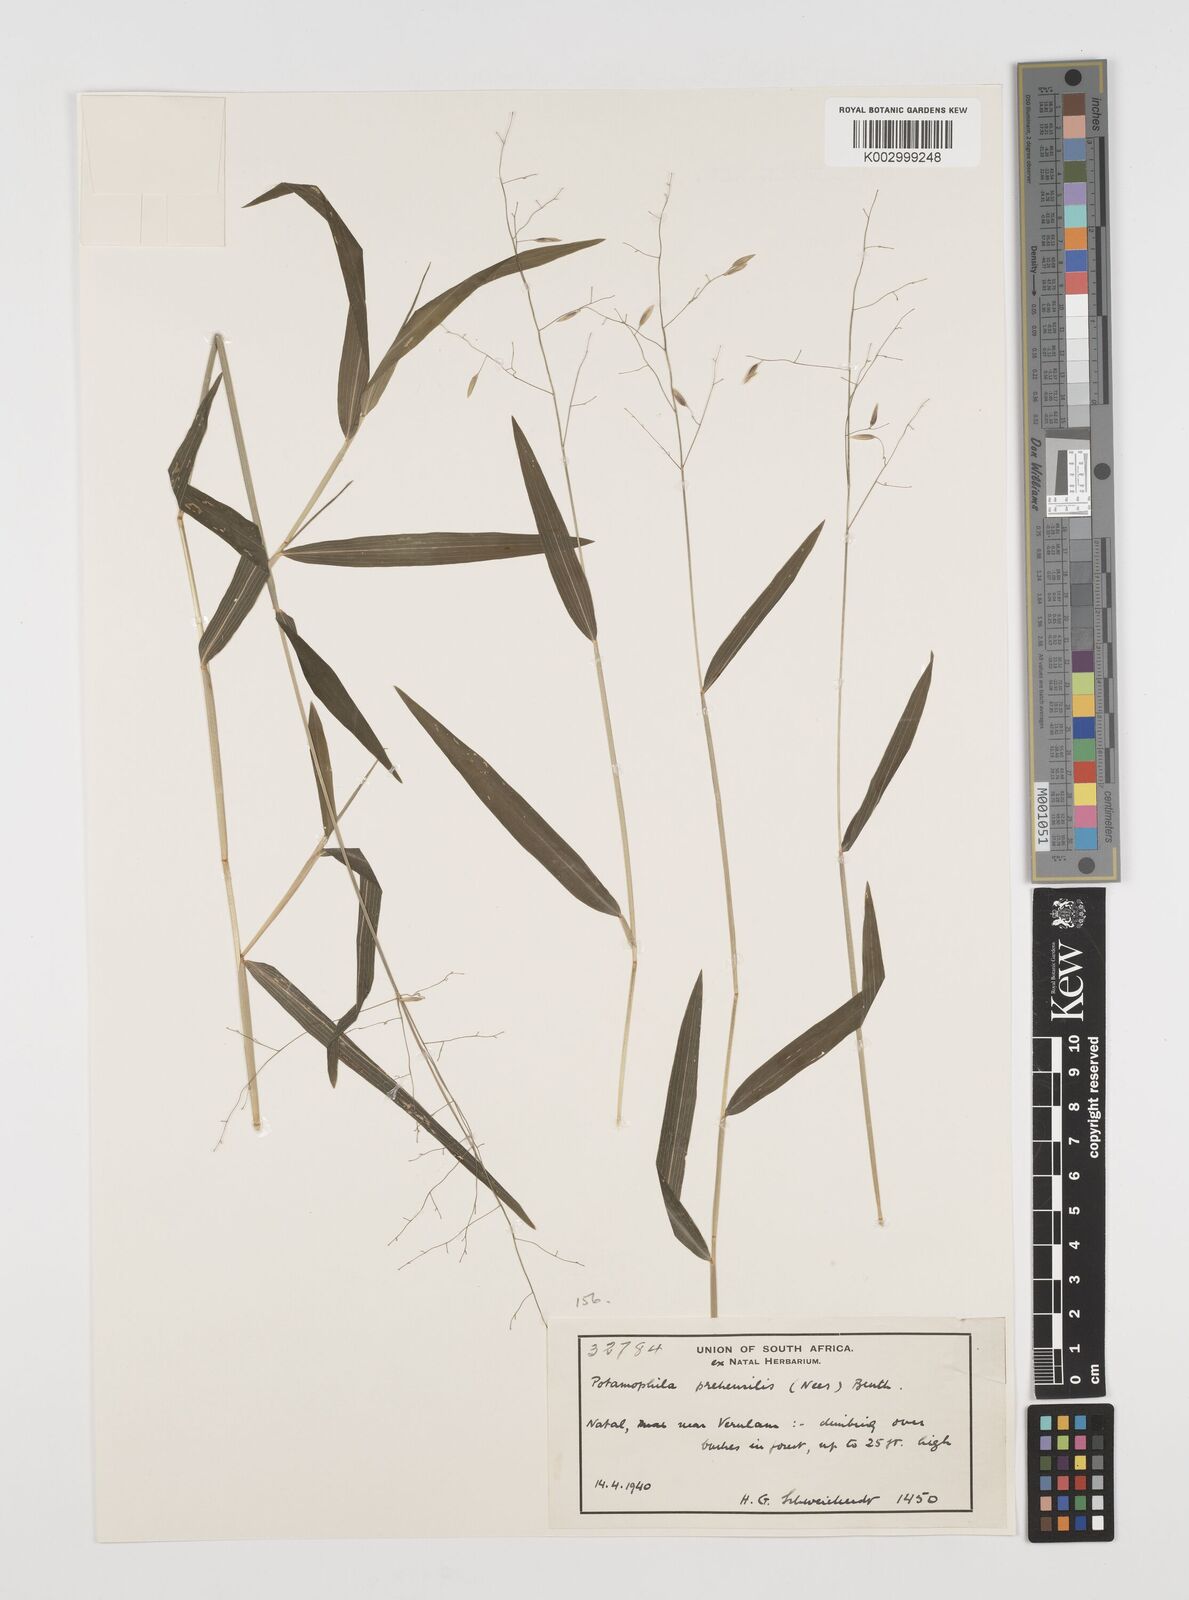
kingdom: Plantae
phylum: Tracheophyta
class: Liliopsida
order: Poales
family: Poaceae
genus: Prosphytochloa
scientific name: Prosphytochloa prehensilis
